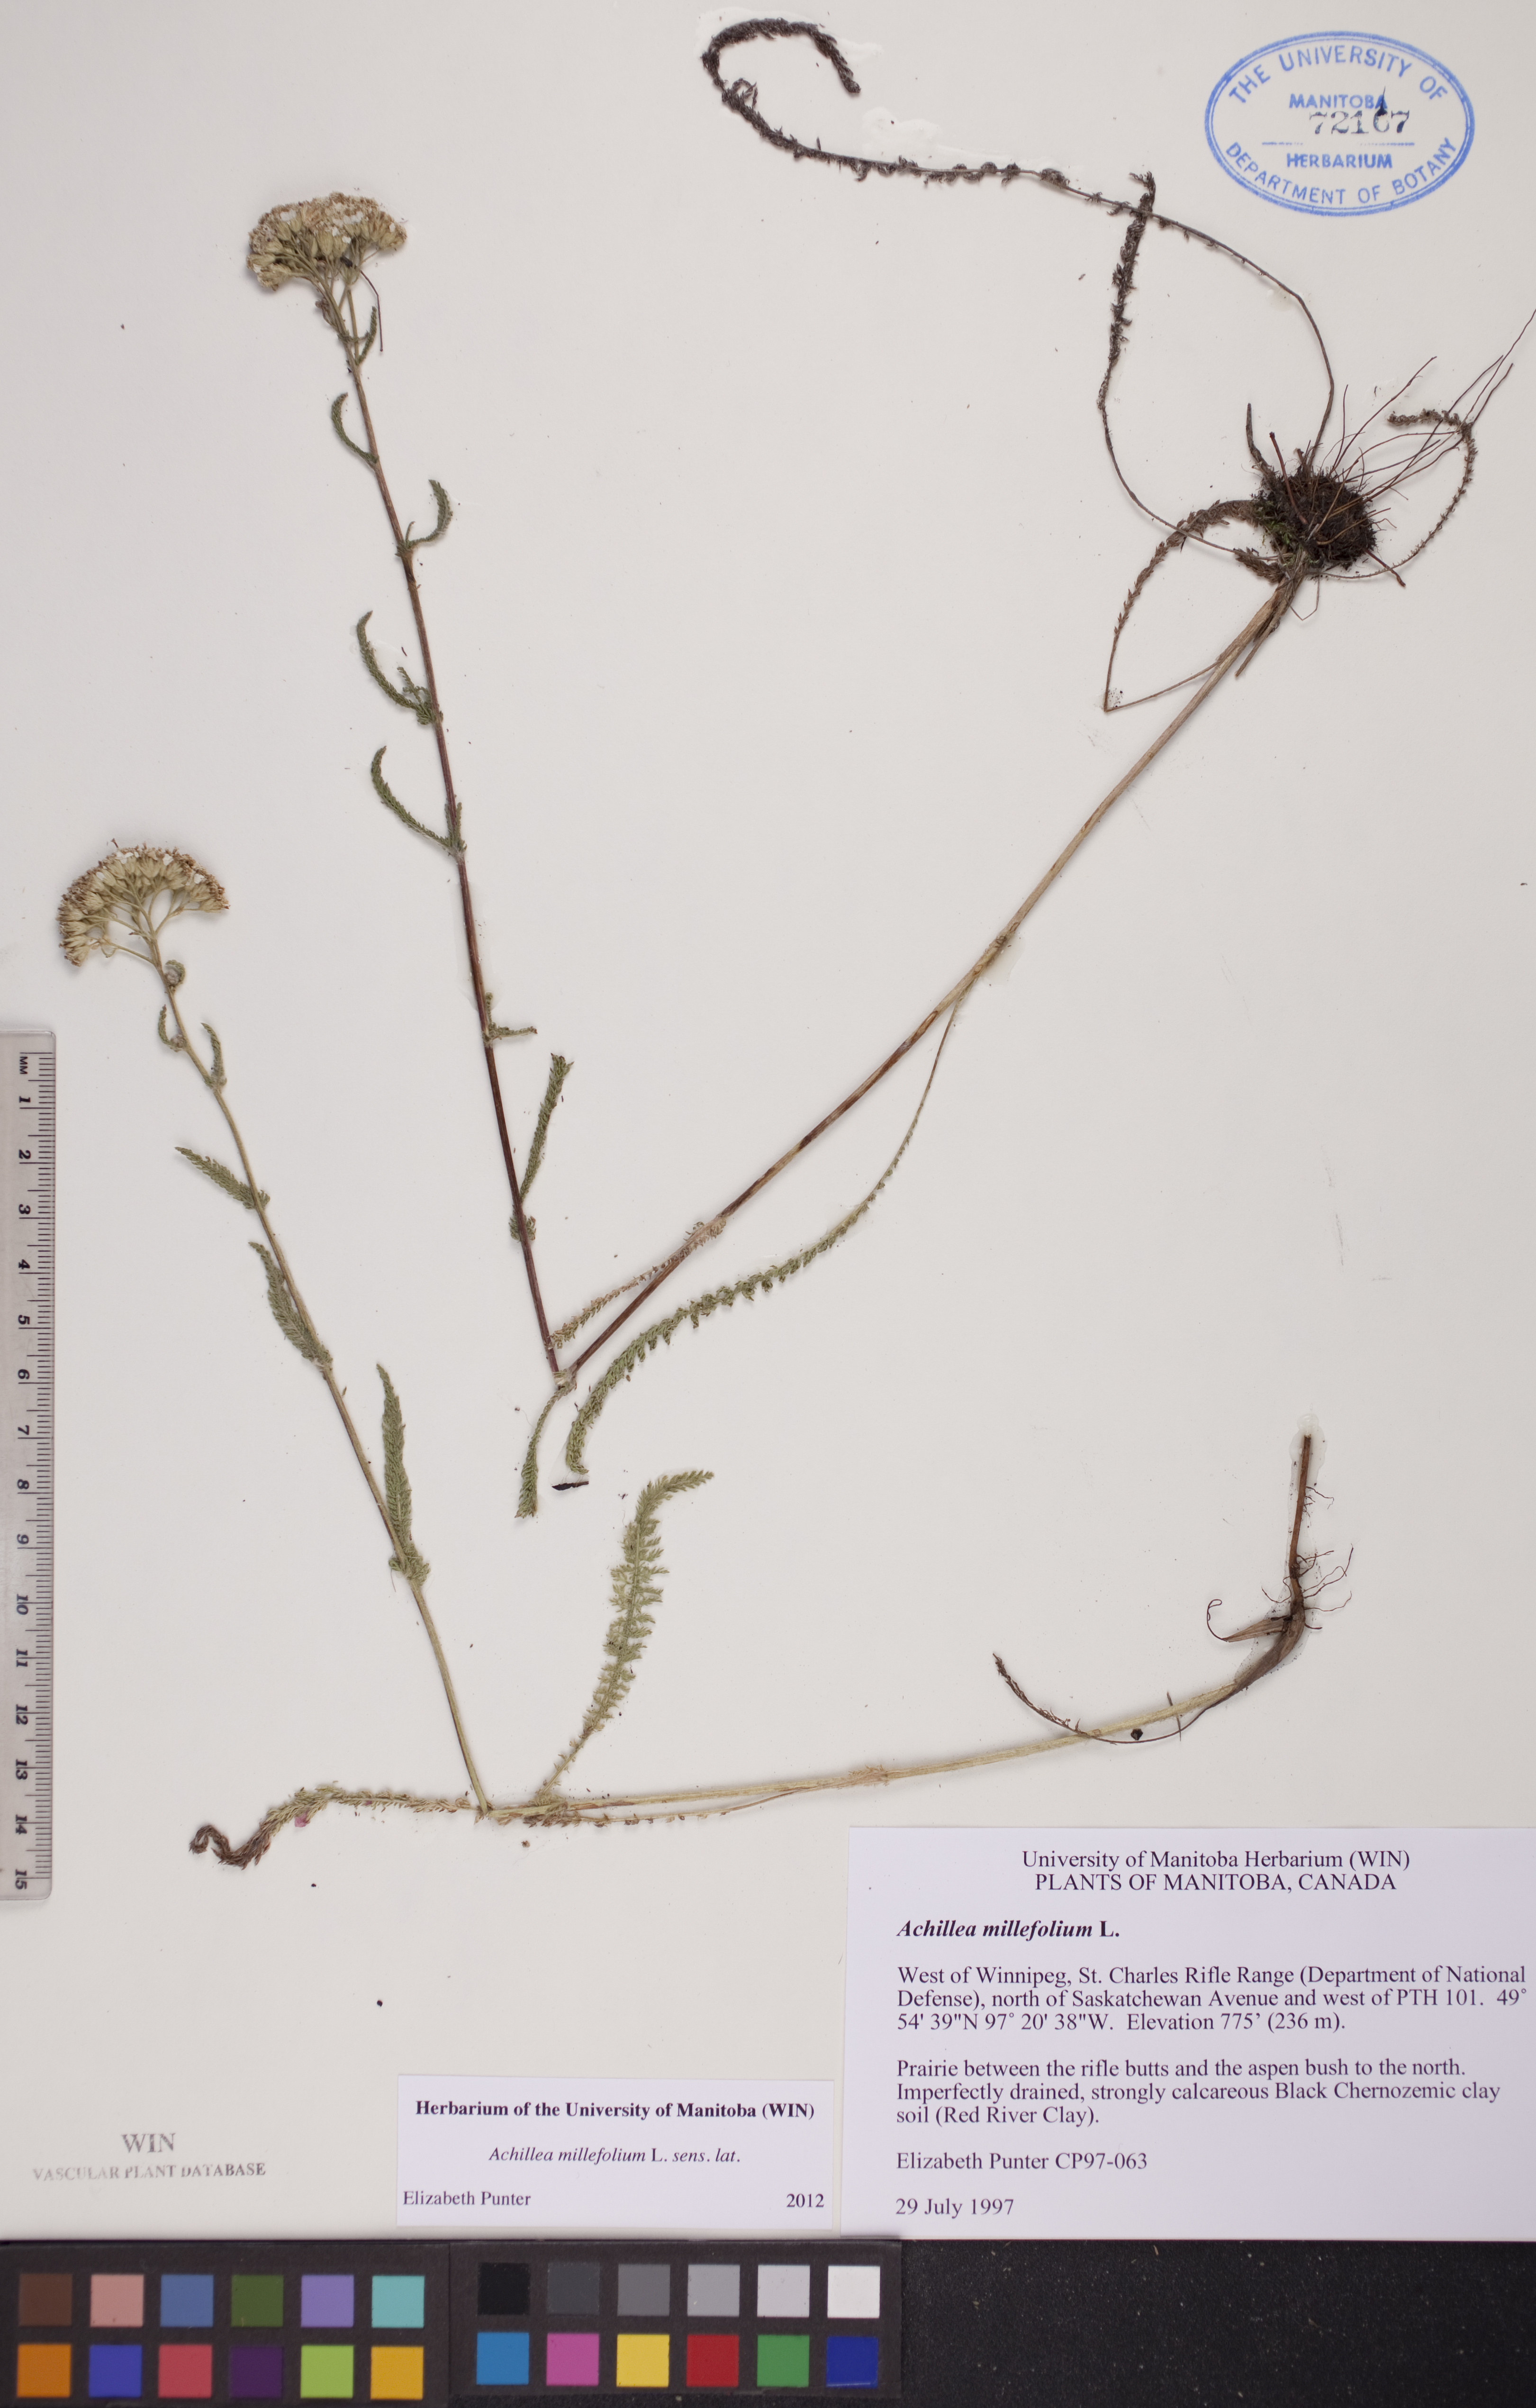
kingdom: Plantae
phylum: Tracheophyta
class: Magnoliopsida
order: Asterales
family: Asteraceae
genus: Achillea
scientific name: Achillea millefolium
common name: Yarrow
